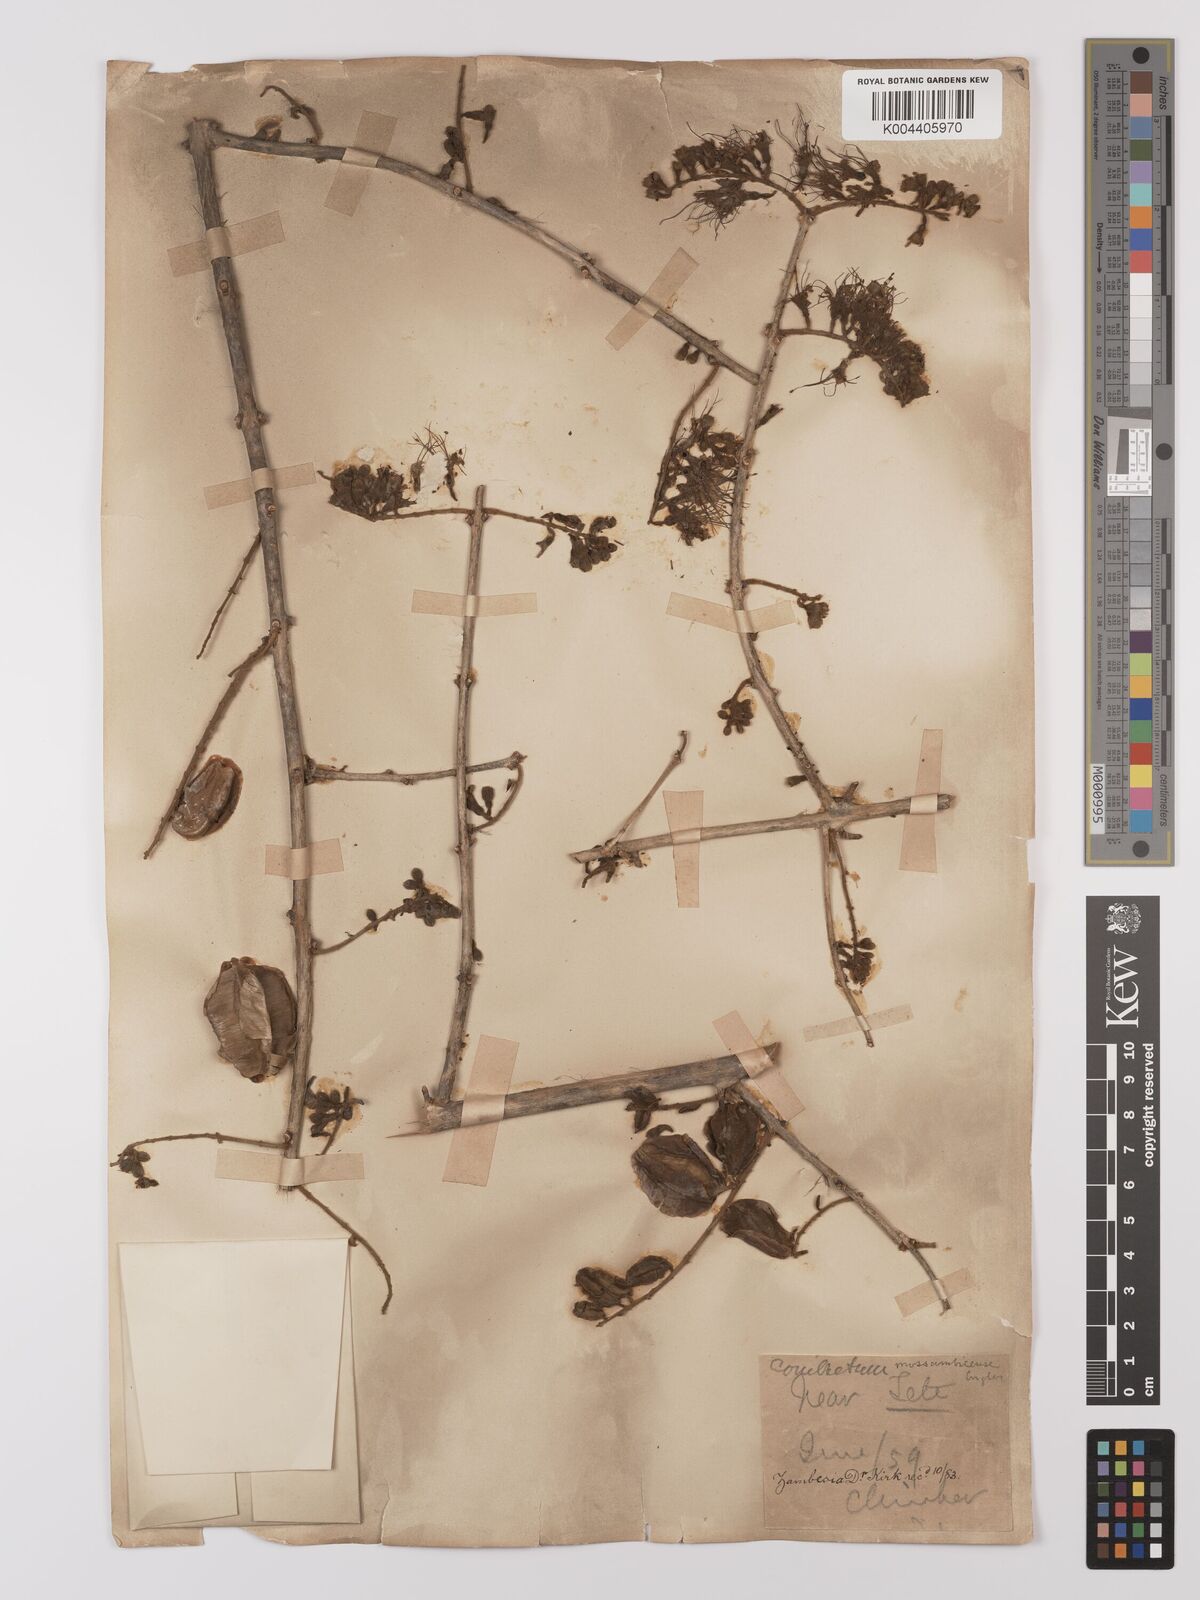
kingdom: Plantae
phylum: Tracheophyta
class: Magnoliopsida
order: Myrtales
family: Combretaceae
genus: Combretum
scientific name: Combretum mossambicense
